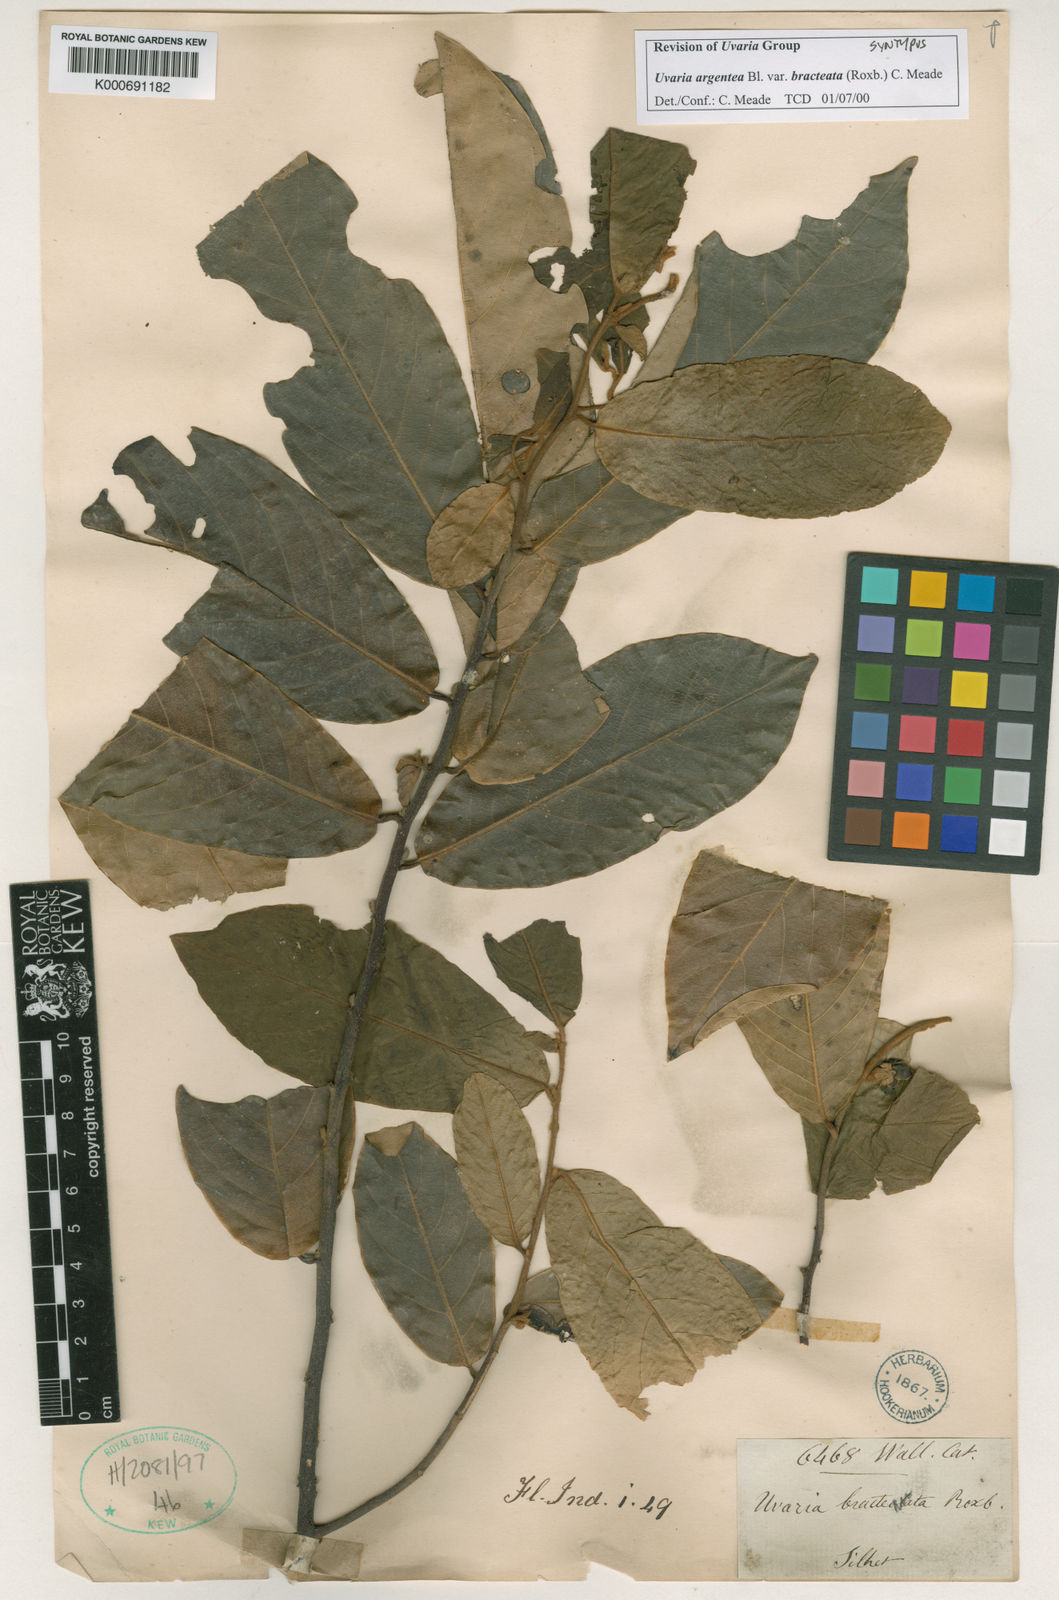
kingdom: Plantae
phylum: Tracheophyta
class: Magnoliopsida
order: Magnoliales
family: Annonaceae
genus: Uvaria
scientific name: Uvaria argentea
